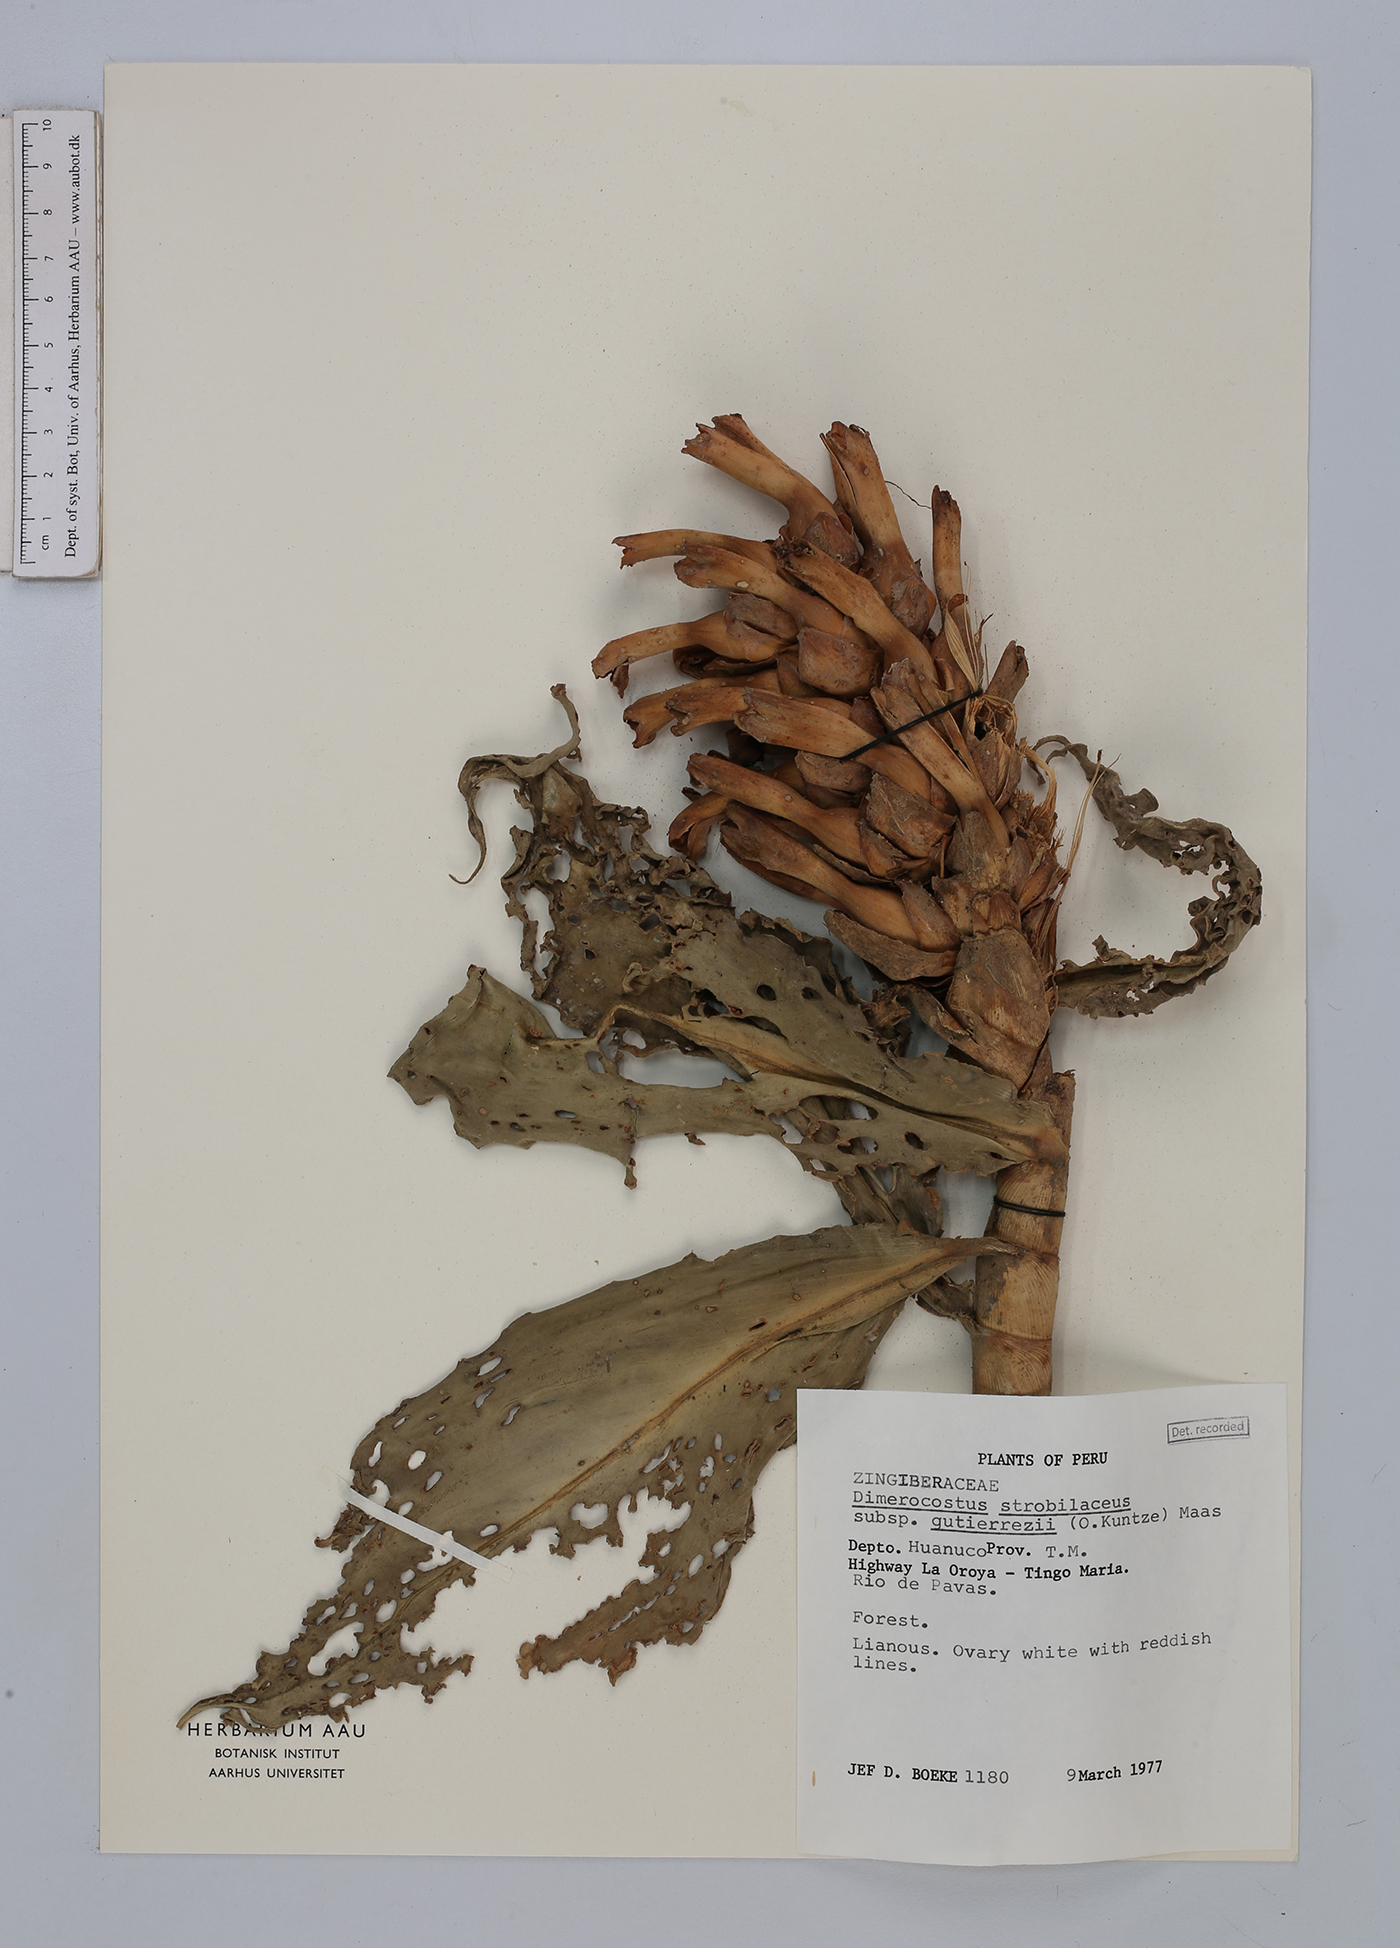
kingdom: Plantae
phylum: Tracheophyta
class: Liliopsida
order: Zingiberales
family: Costaceae
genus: Dimerocostus
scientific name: Dimerocostus strobilaceus
